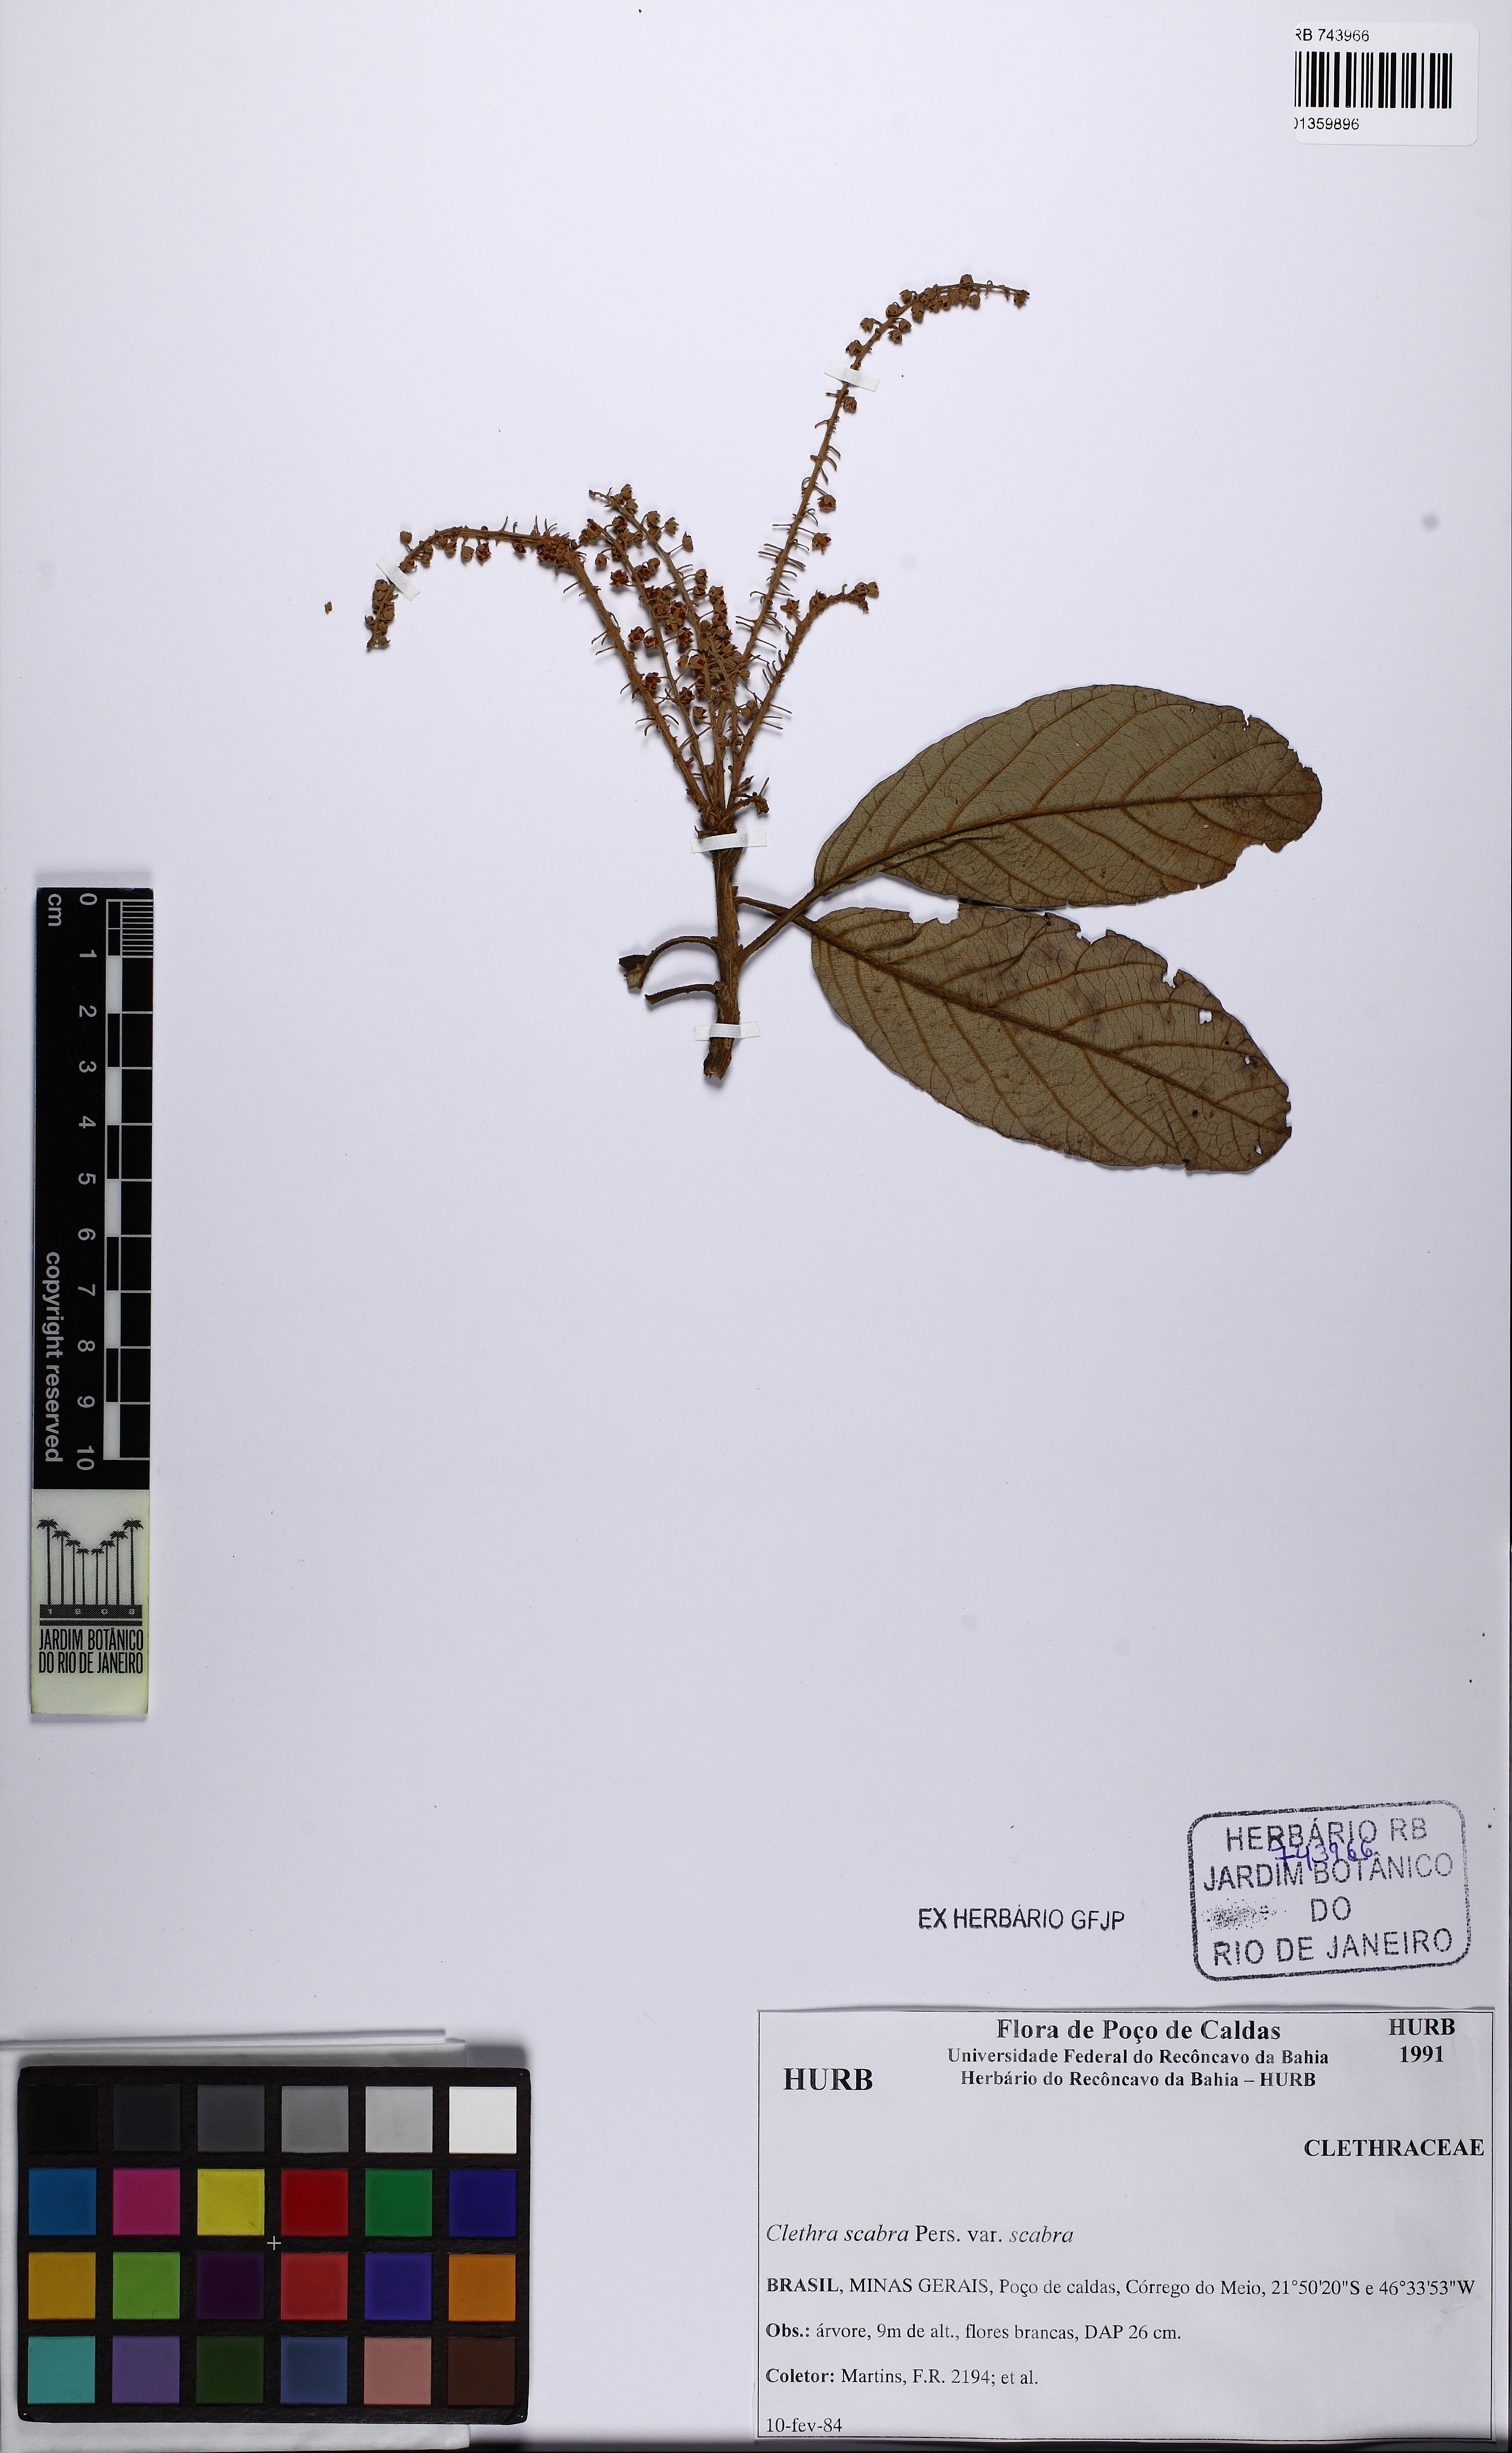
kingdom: Plantae
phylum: Tracheophyta
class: Magnoliopsida
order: Ericales
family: Clethraceae
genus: Clethra
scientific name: Clethra scabra
